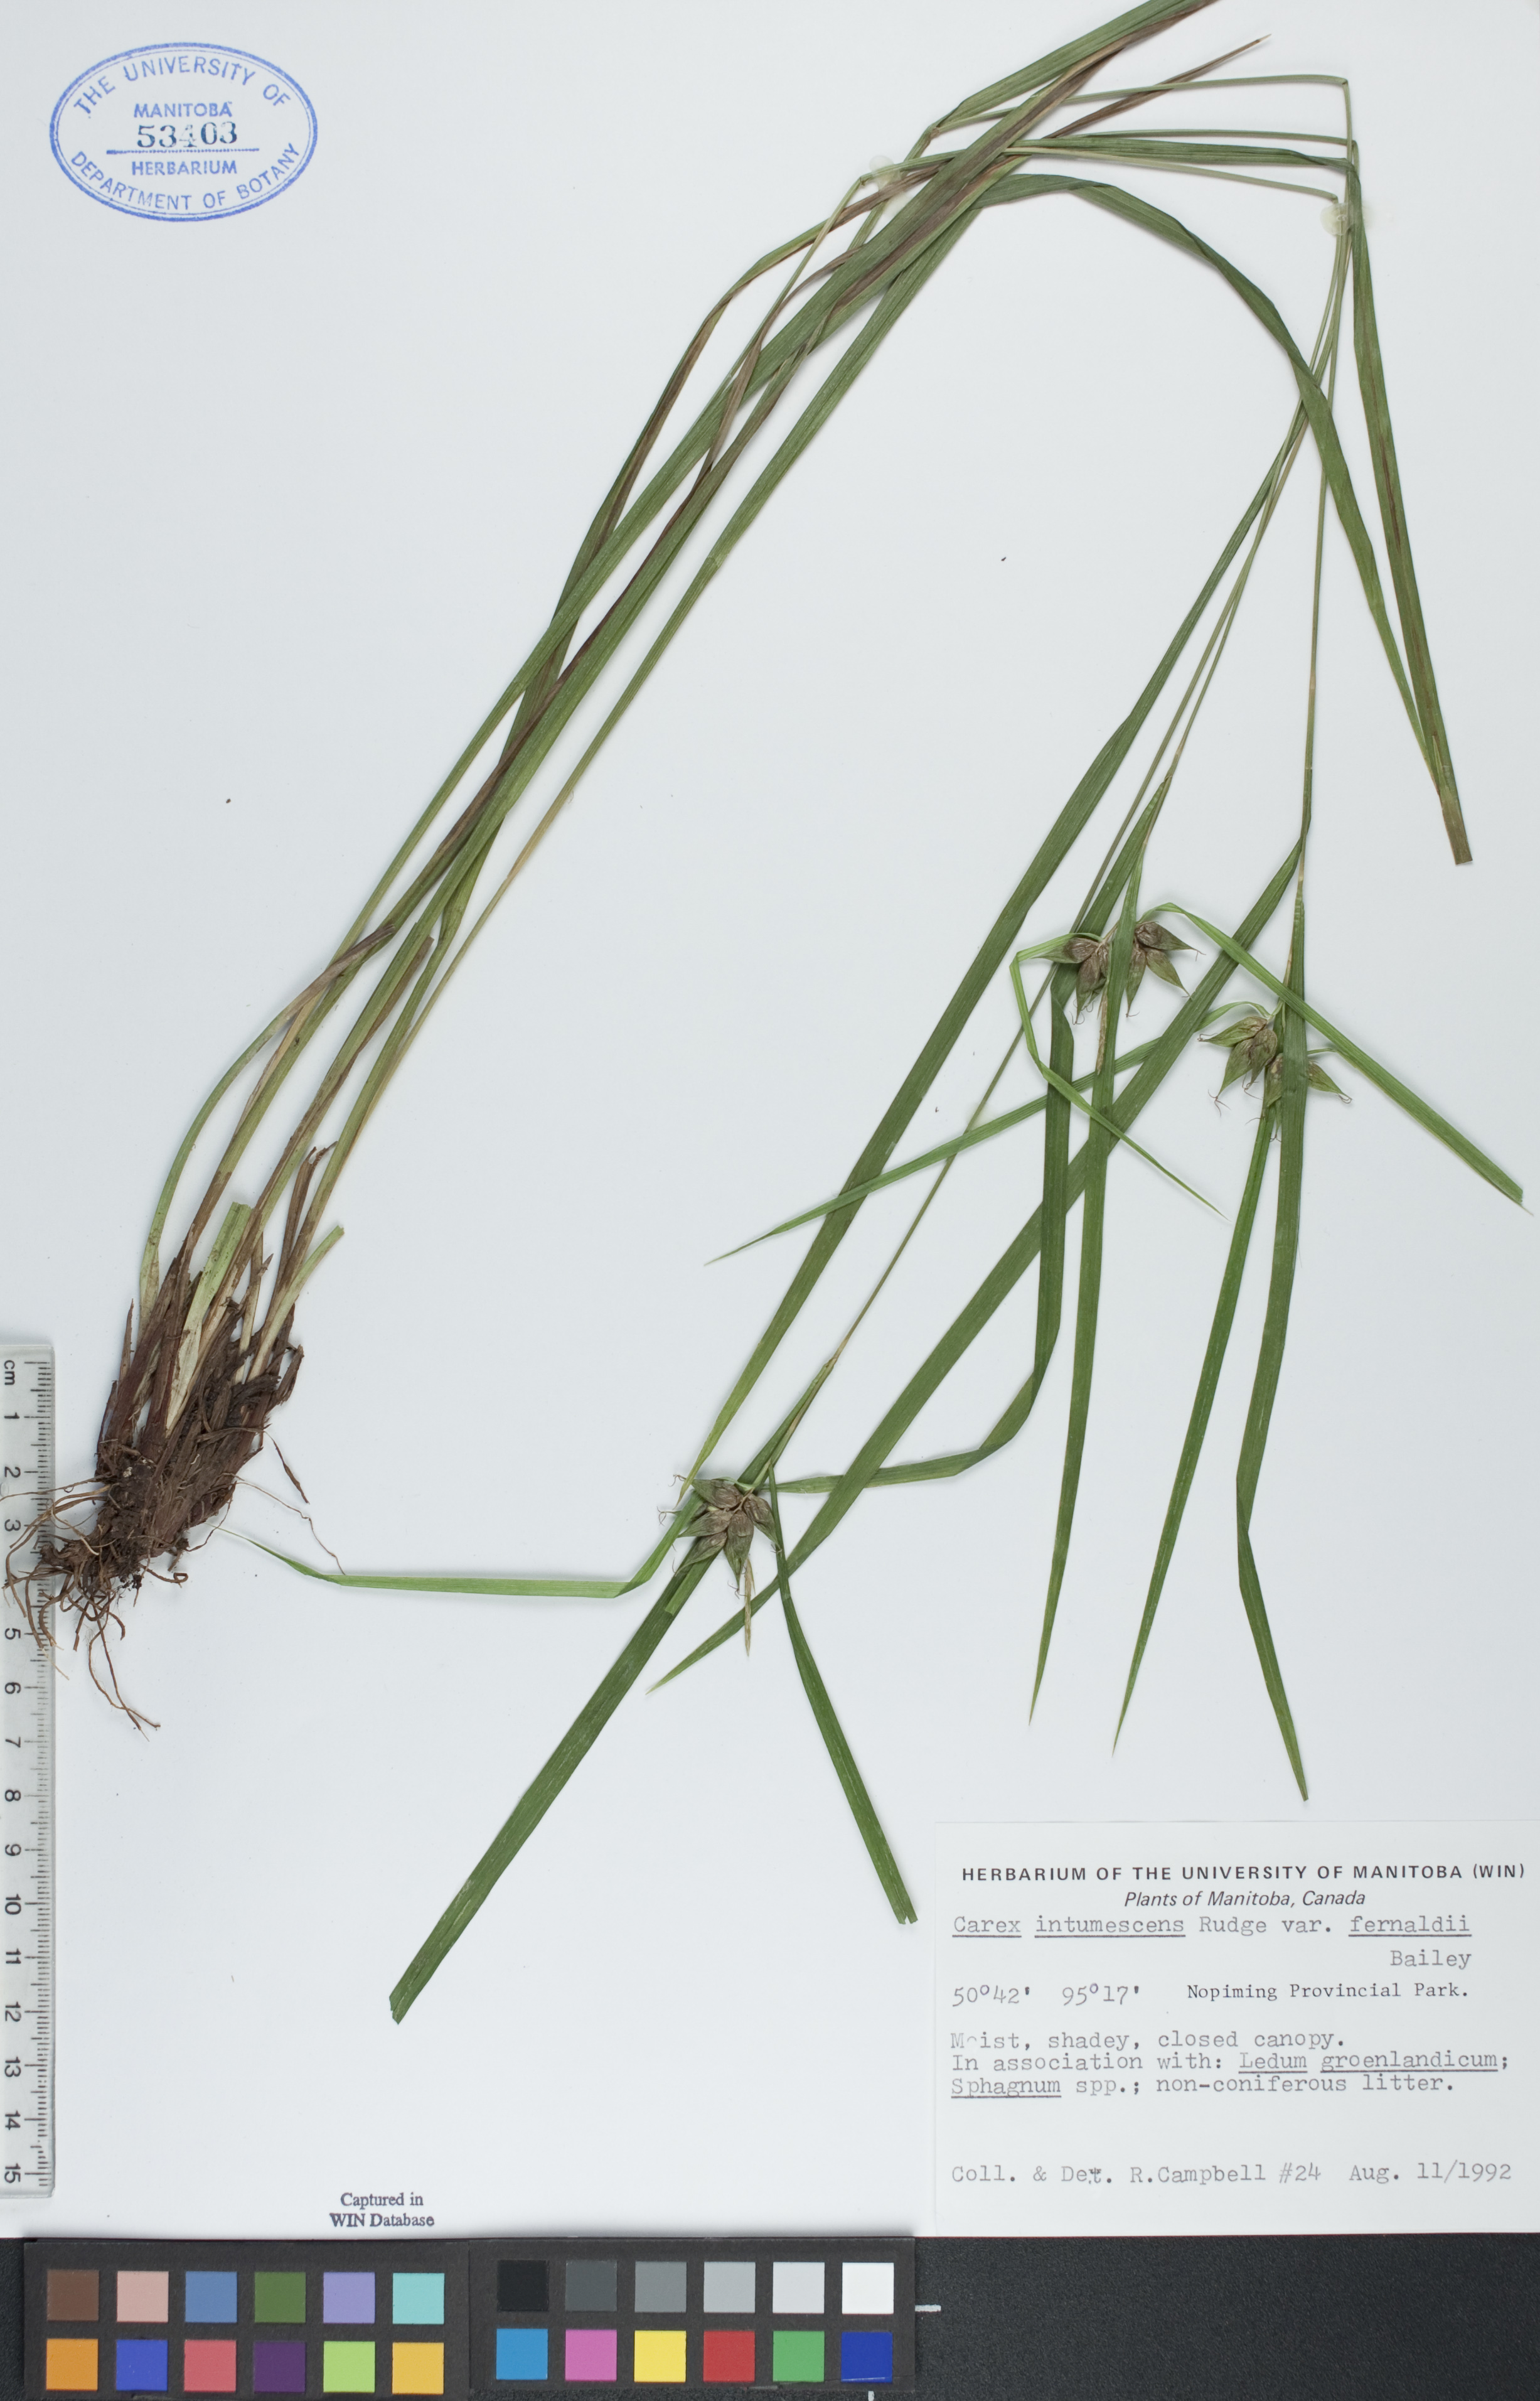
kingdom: Plantae
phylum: Tracheophyta
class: Liliopsida
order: Poales
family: Cyperaceae
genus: Carex
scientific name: Carex intumescens
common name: Greater bladder sedge
